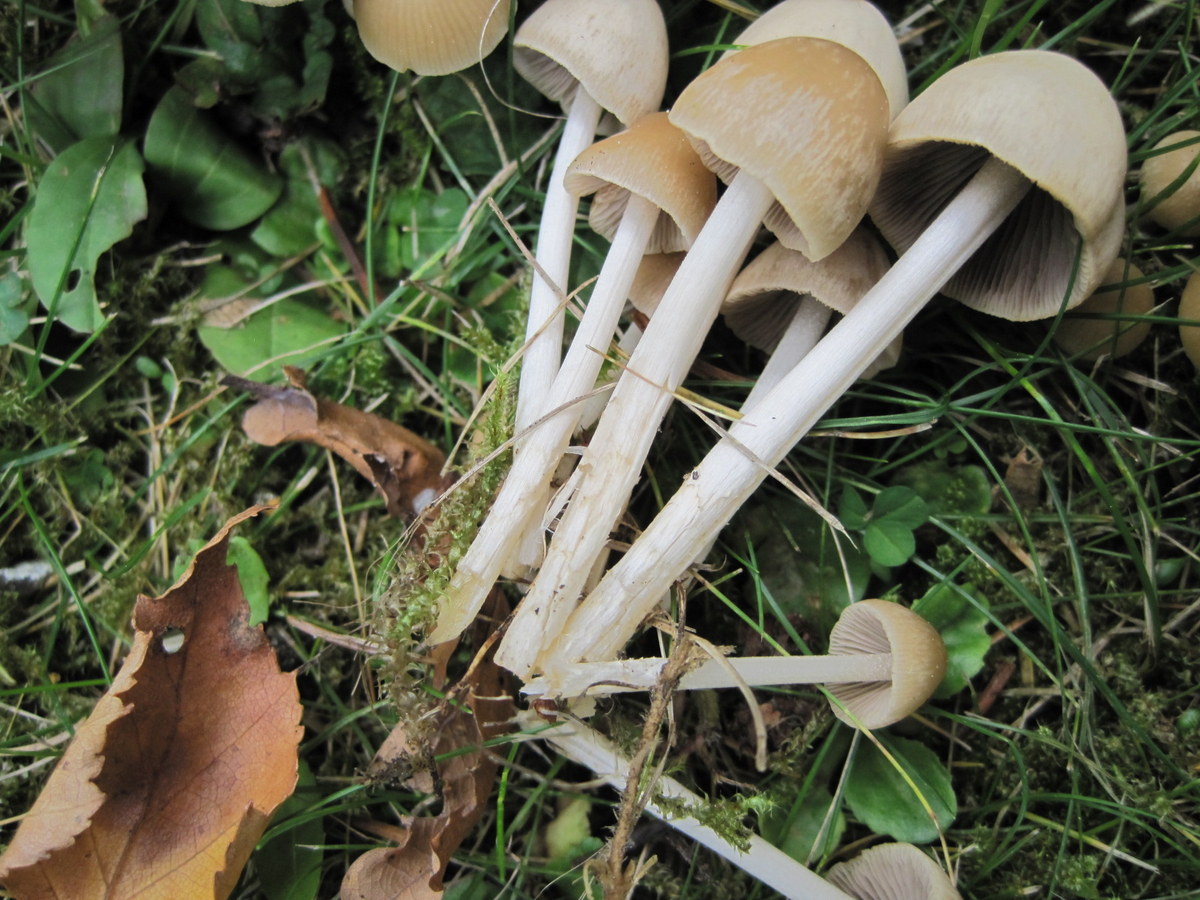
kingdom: Fungi
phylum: Basidiomycota
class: Agaricomycetes
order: Agaricales
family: Psathyrellaceae
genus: Britzelmayria
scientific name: Britzelmayria multipedata
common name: knippe-mørkhat
